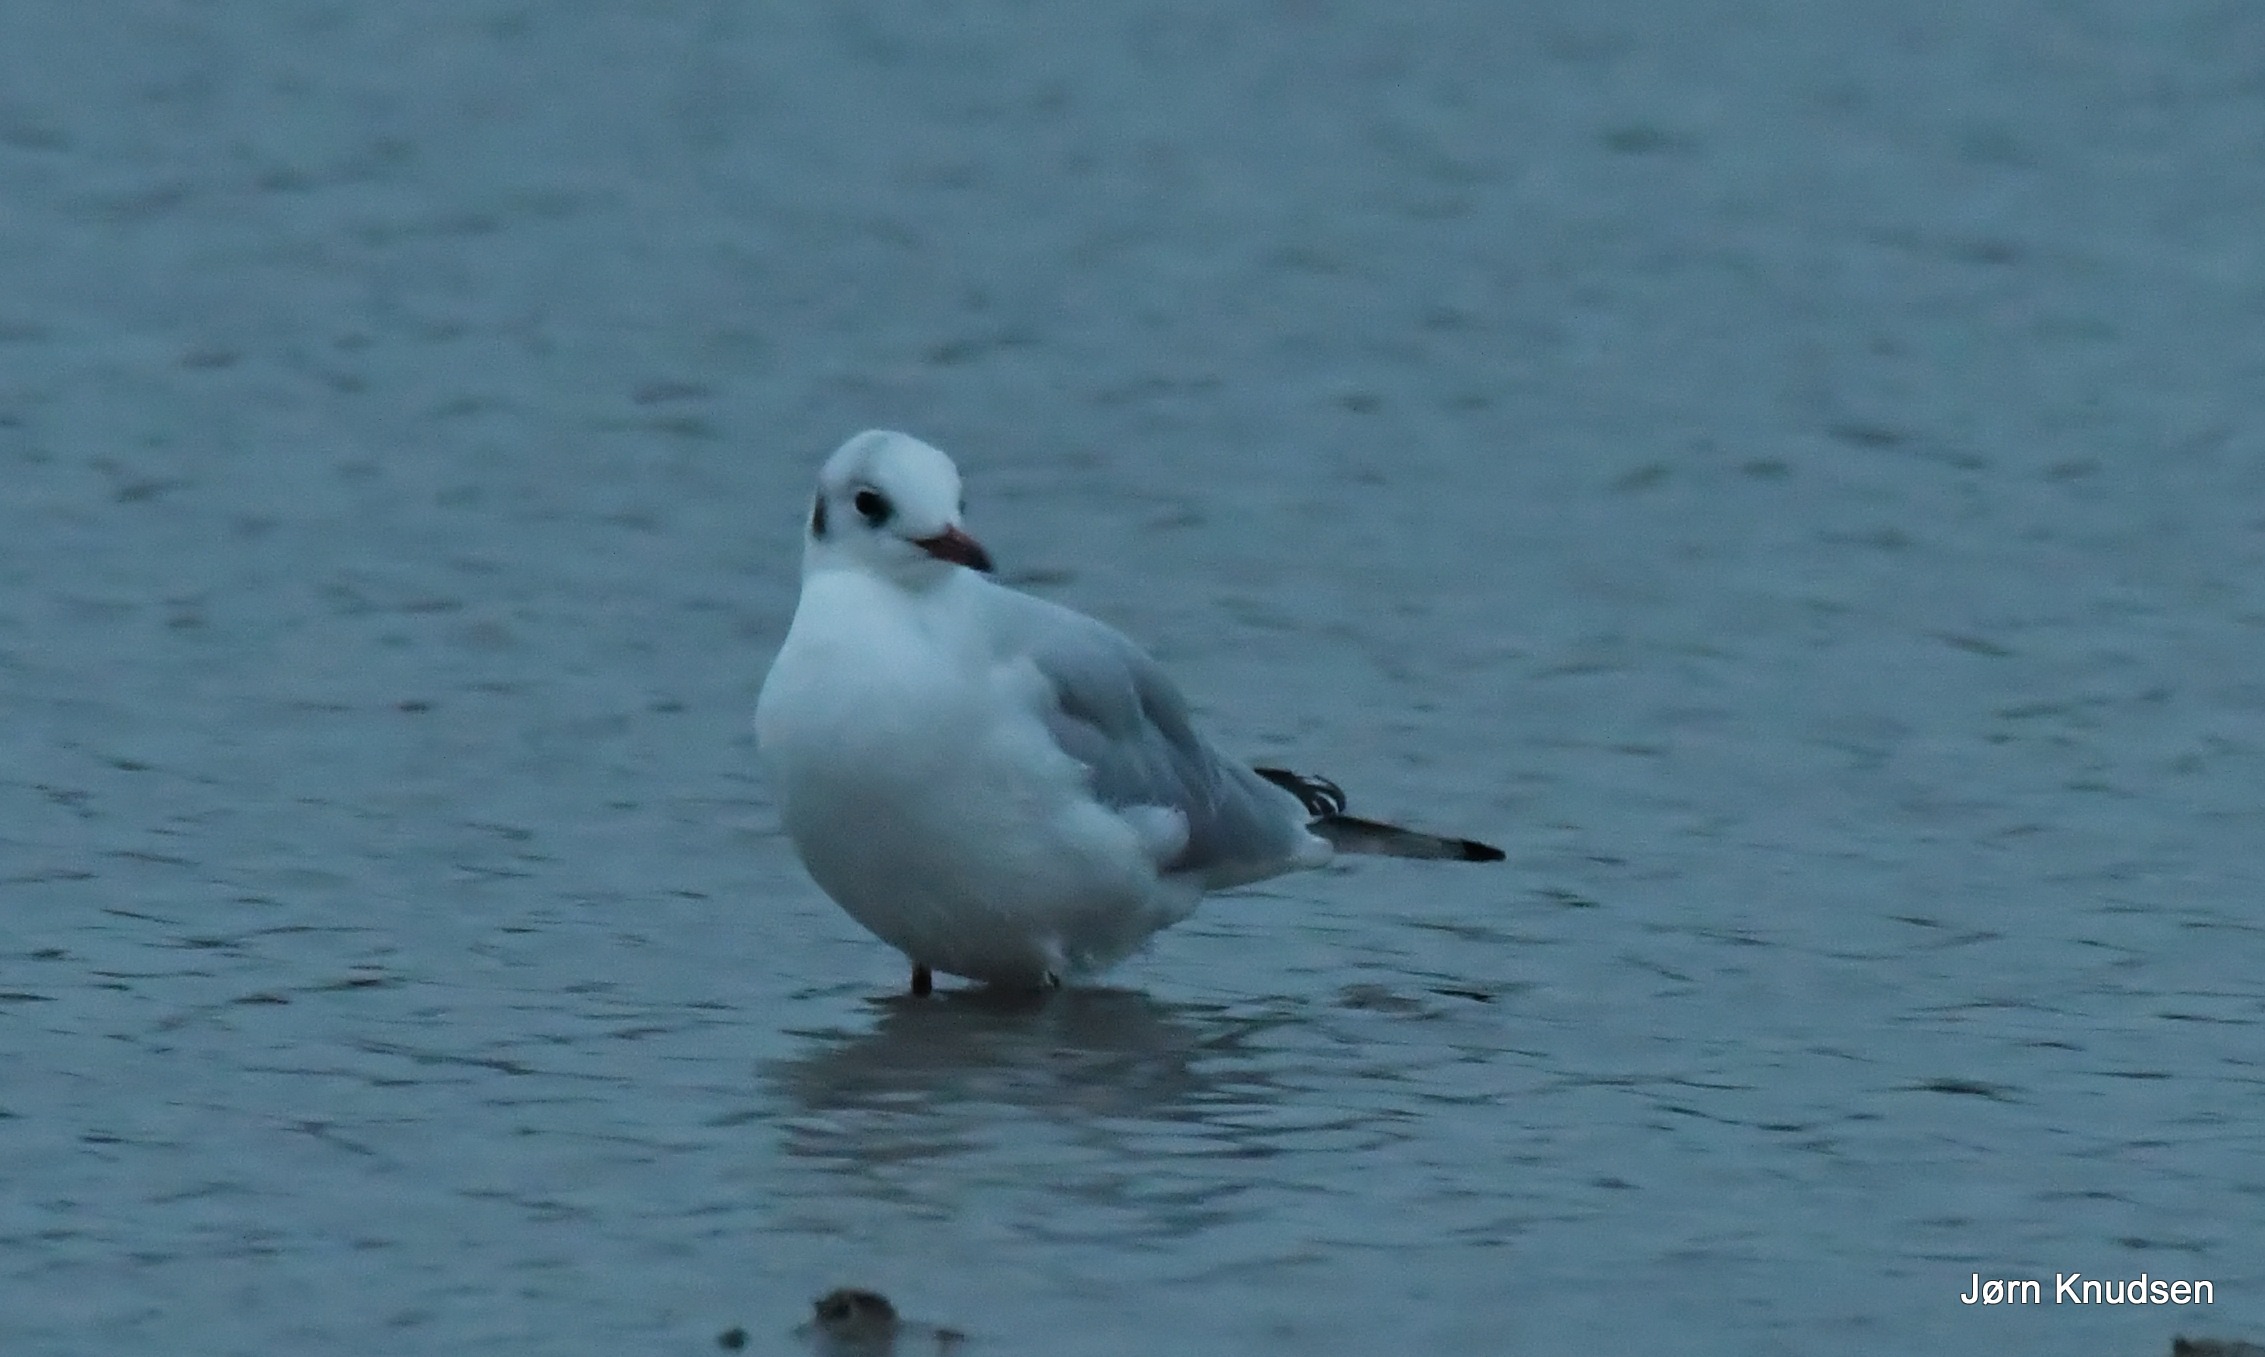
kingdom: Animalia
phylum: Chordata
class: Aves
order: Charadriiformes
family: Laridae
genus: Chroicocephalus
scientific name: Chroicocephalus ridibundus
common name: Hættemåge
